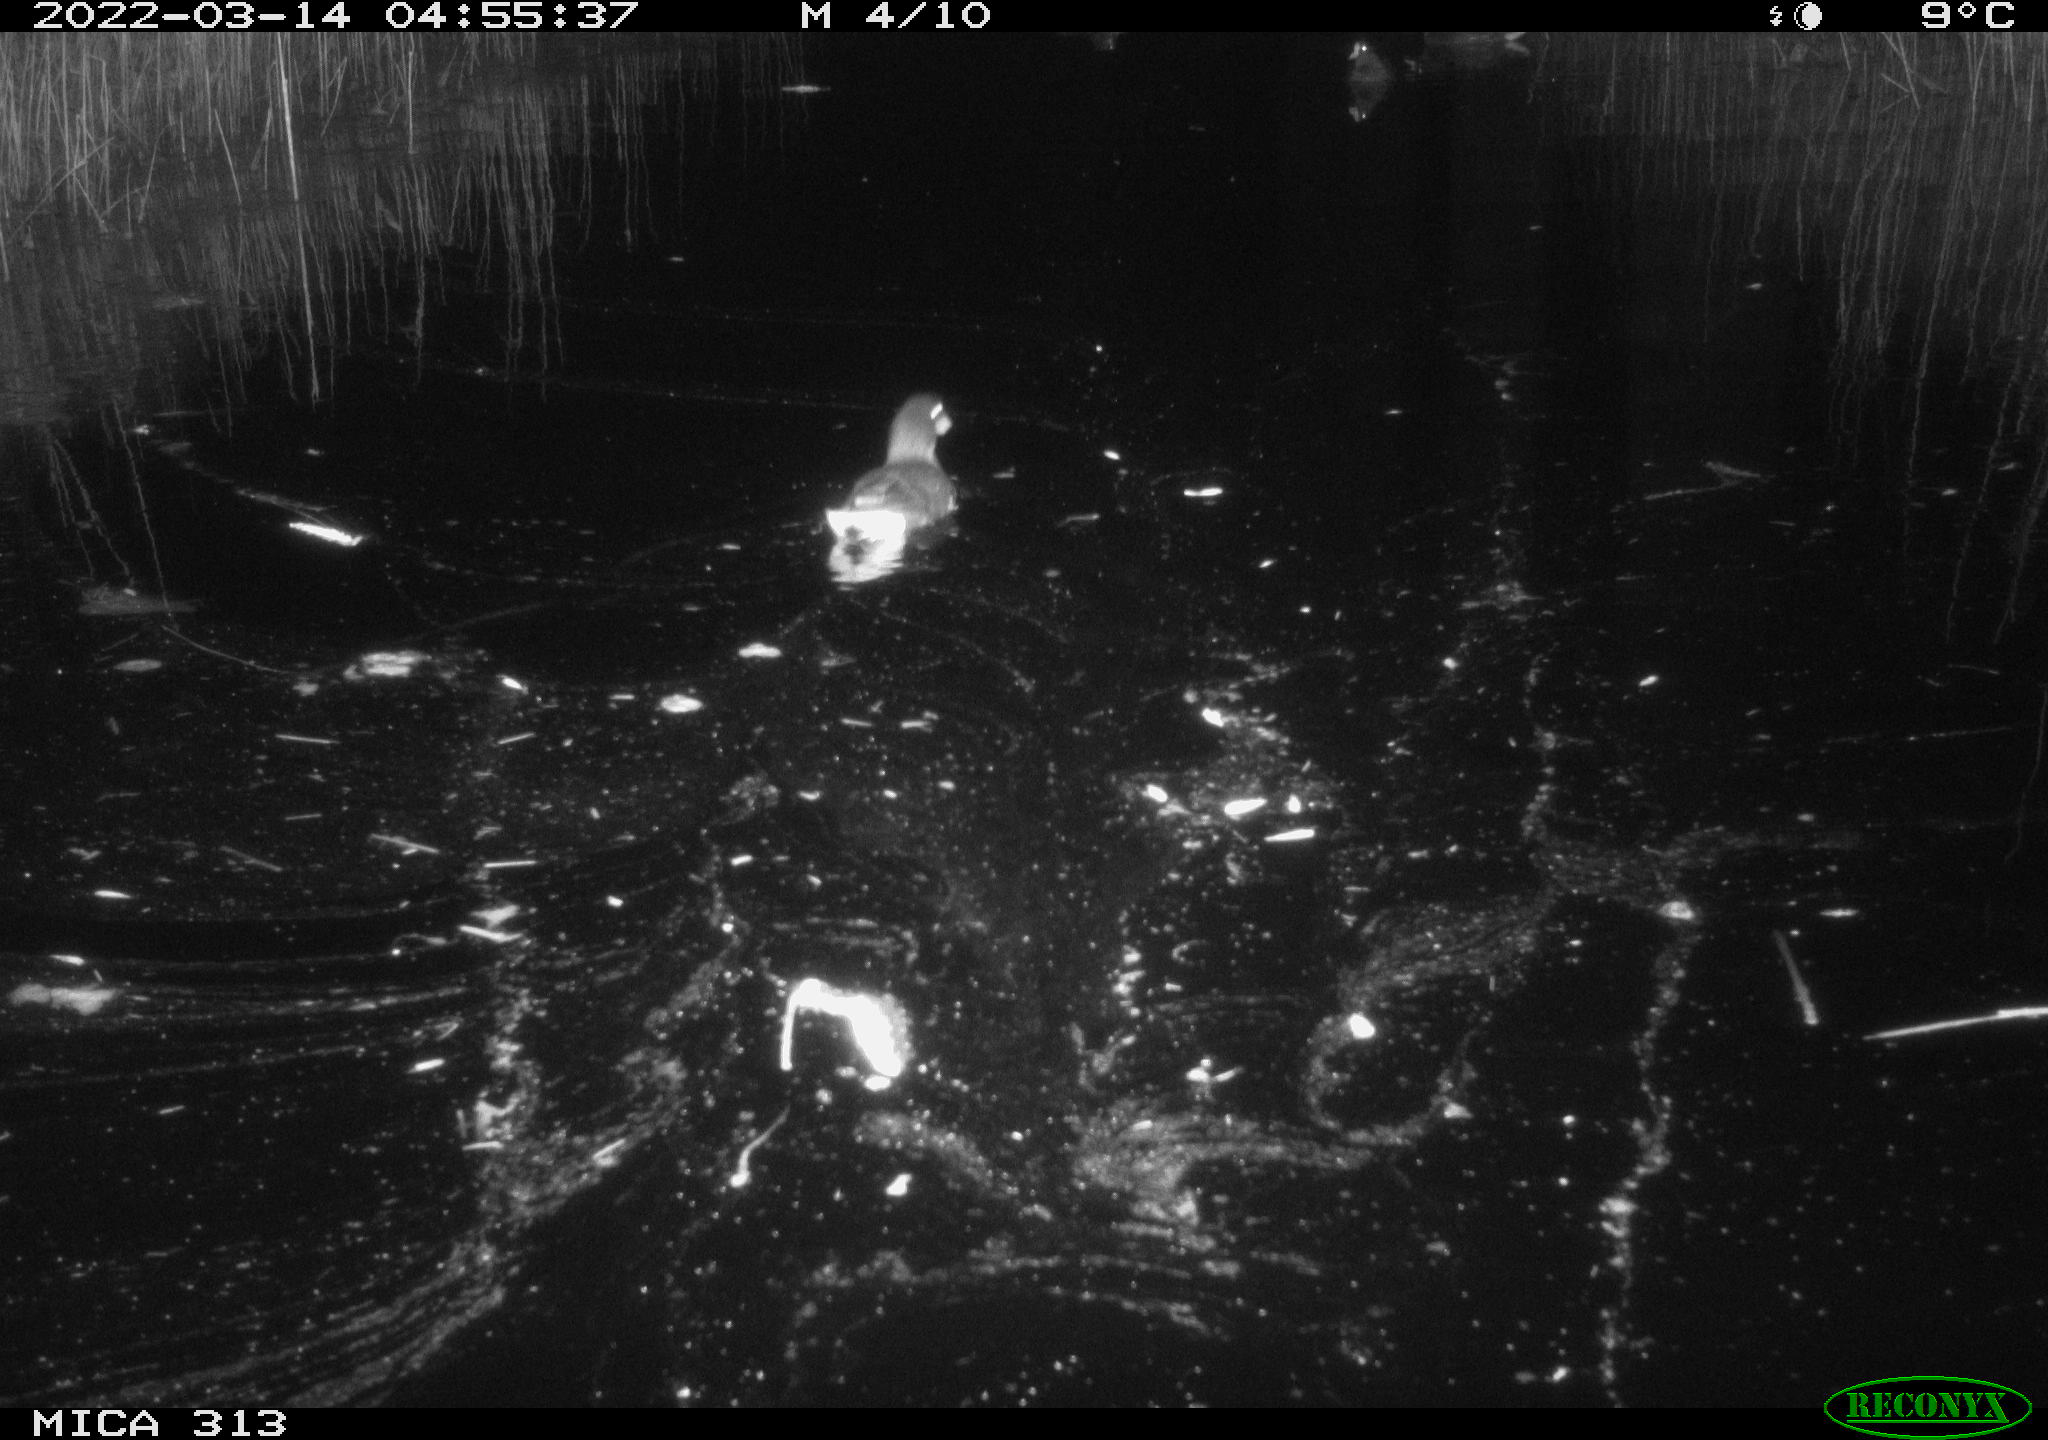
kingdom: Animalia
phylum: Chordata
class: Aves
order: Gruiformes
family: Rallidae
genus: Gallinula
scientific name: Gallinula chloropus
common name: Common moorhen
